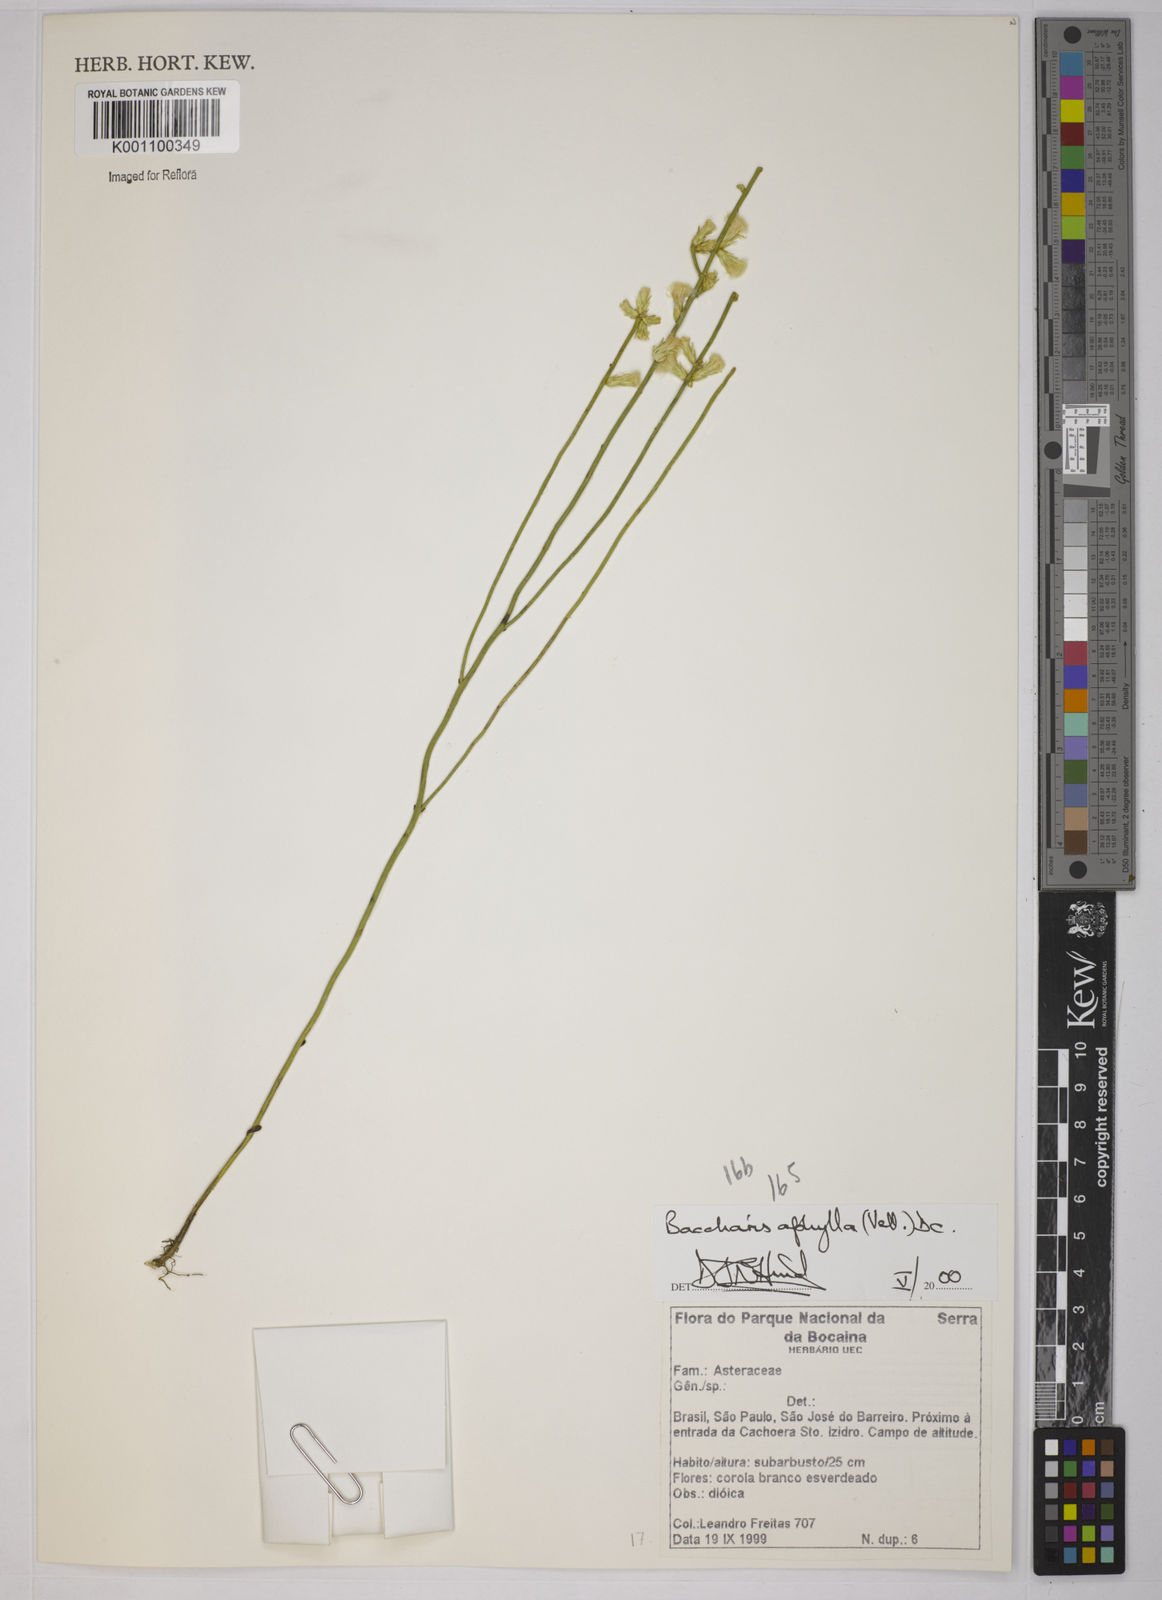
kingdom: Plantae
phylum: Tracheophyta
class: Magnoliopsida
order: Asterales
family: Asteraceae
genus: Baccharis
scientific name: Baccharis aphylla
